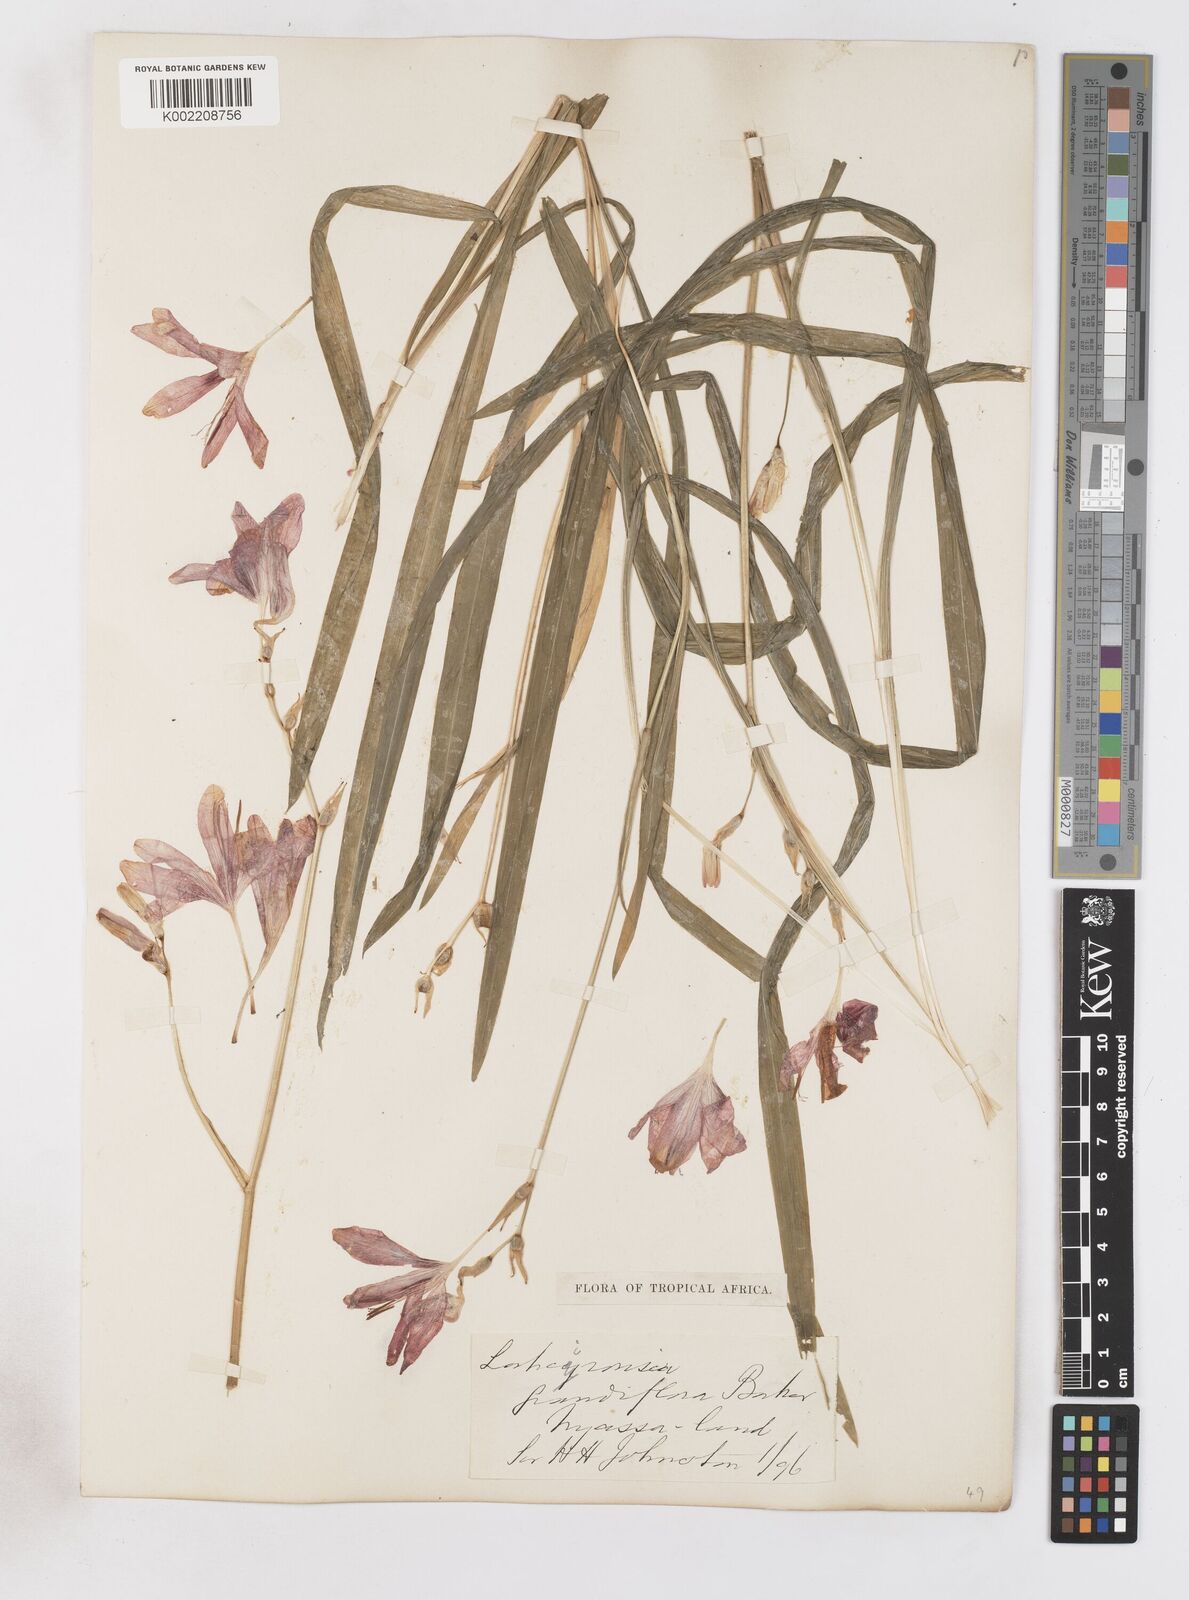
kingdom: Plantae
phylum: Tracheophyta
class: Liliopsida
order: Asparagales
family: Iridaceae
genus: Freesia
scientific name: Freesia grandiflora
